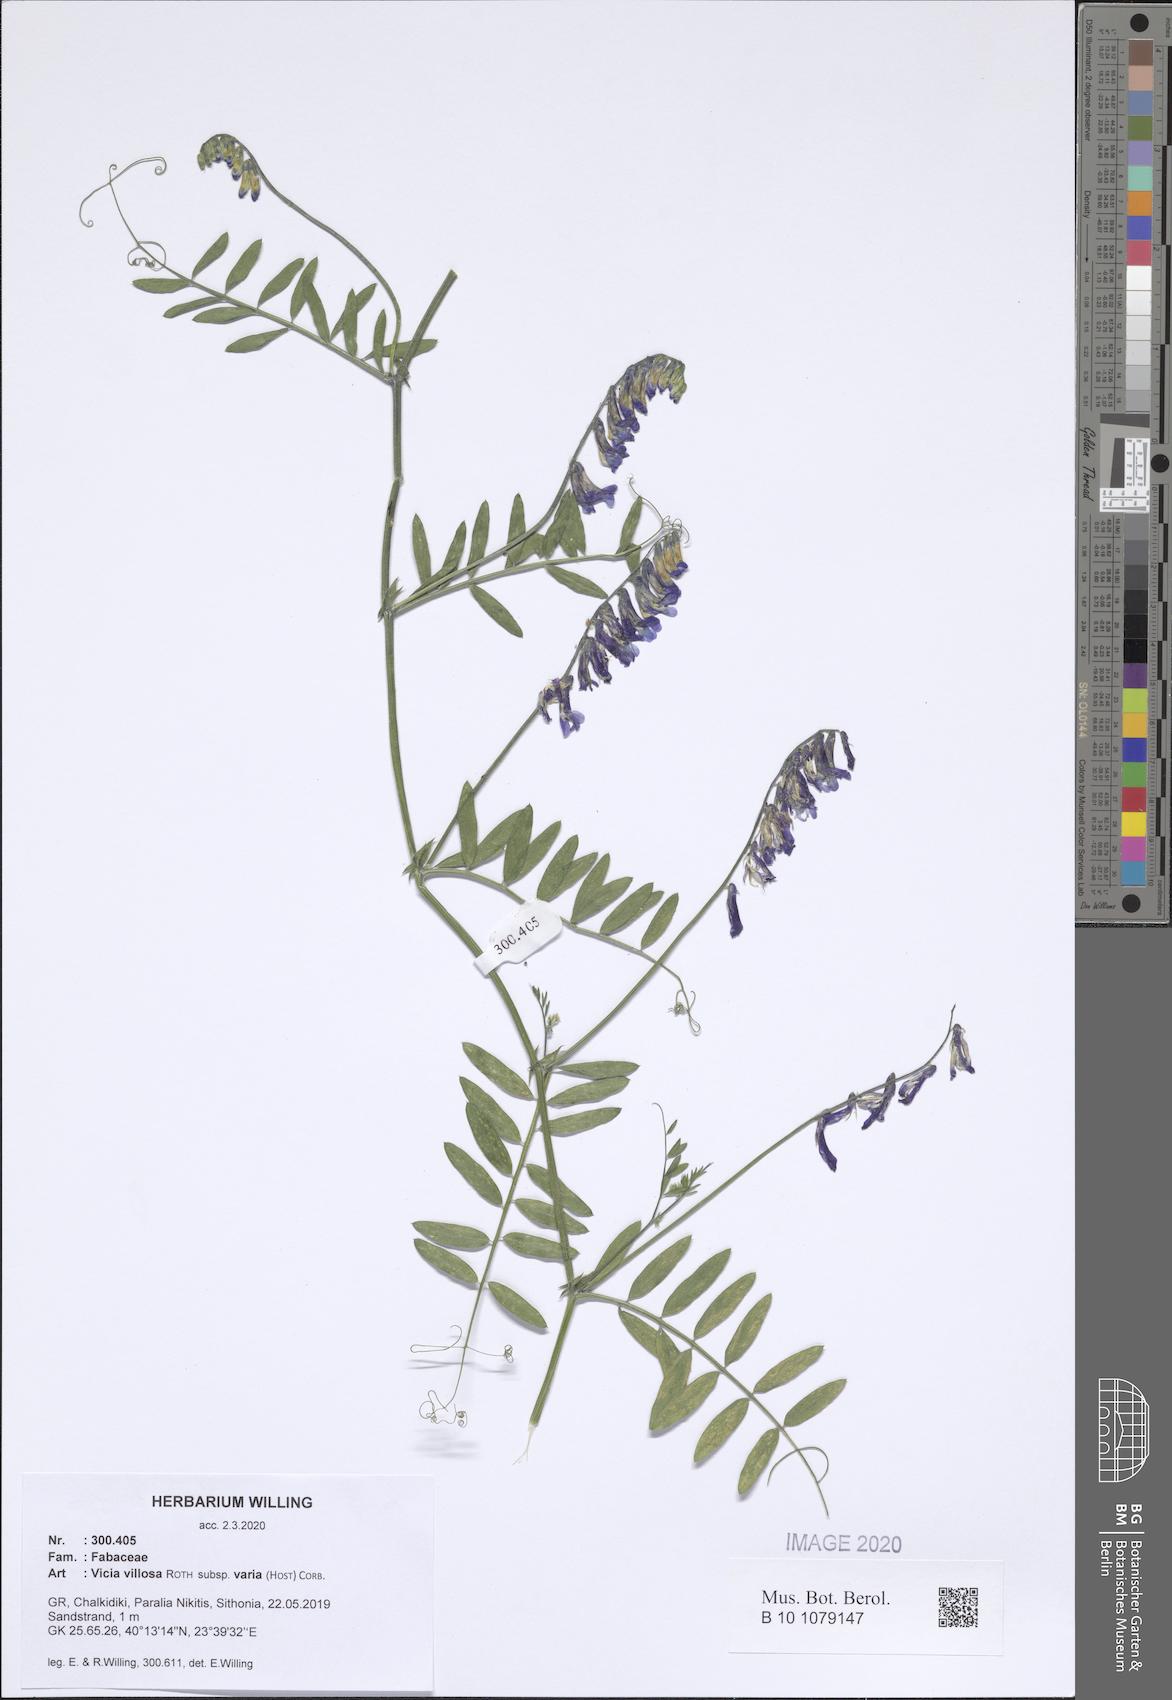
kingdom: Plantae
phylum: Tracheophyta
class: Magnoliopsida
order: Fabales
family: Fabaceae
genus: Vicia
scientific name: Vicia villosa
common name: Fodder vetch
